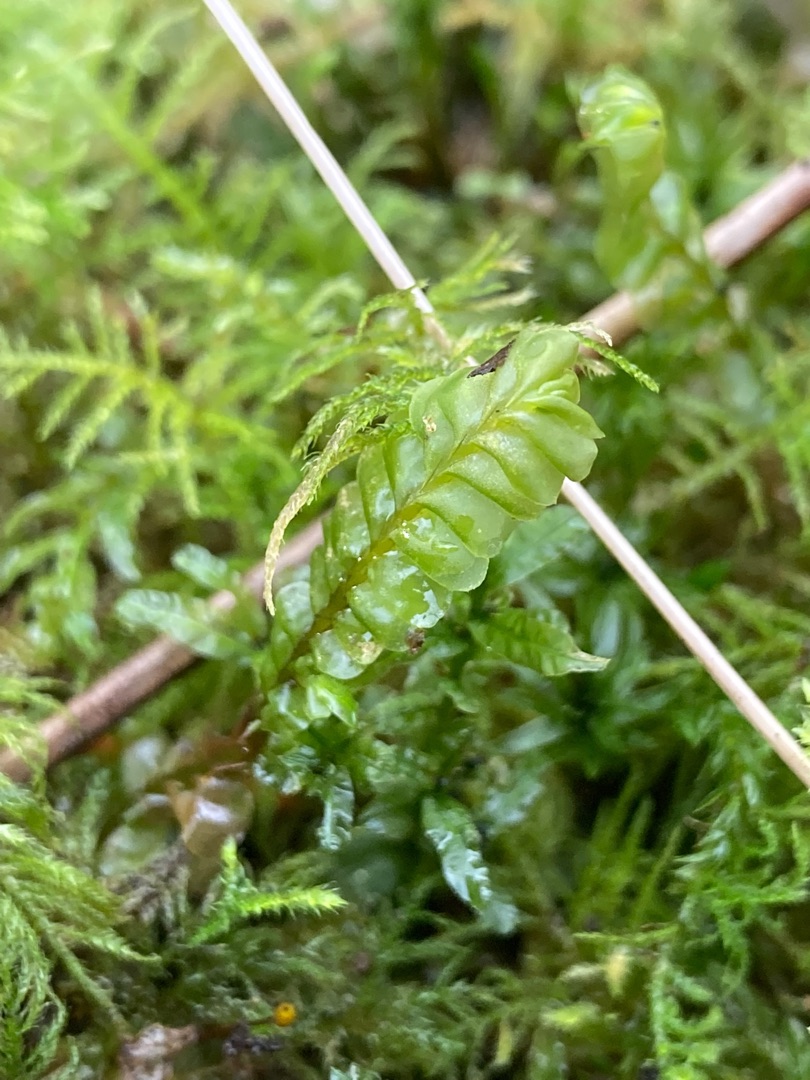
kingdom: Plantae
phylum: Marchantiophyta
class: Jungermanniopsida
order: Jungermanniales
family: Plagiochilaceae
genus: Plagiochila
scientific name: Plagiochila asplenioides
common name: Radeløv-hindeblad
